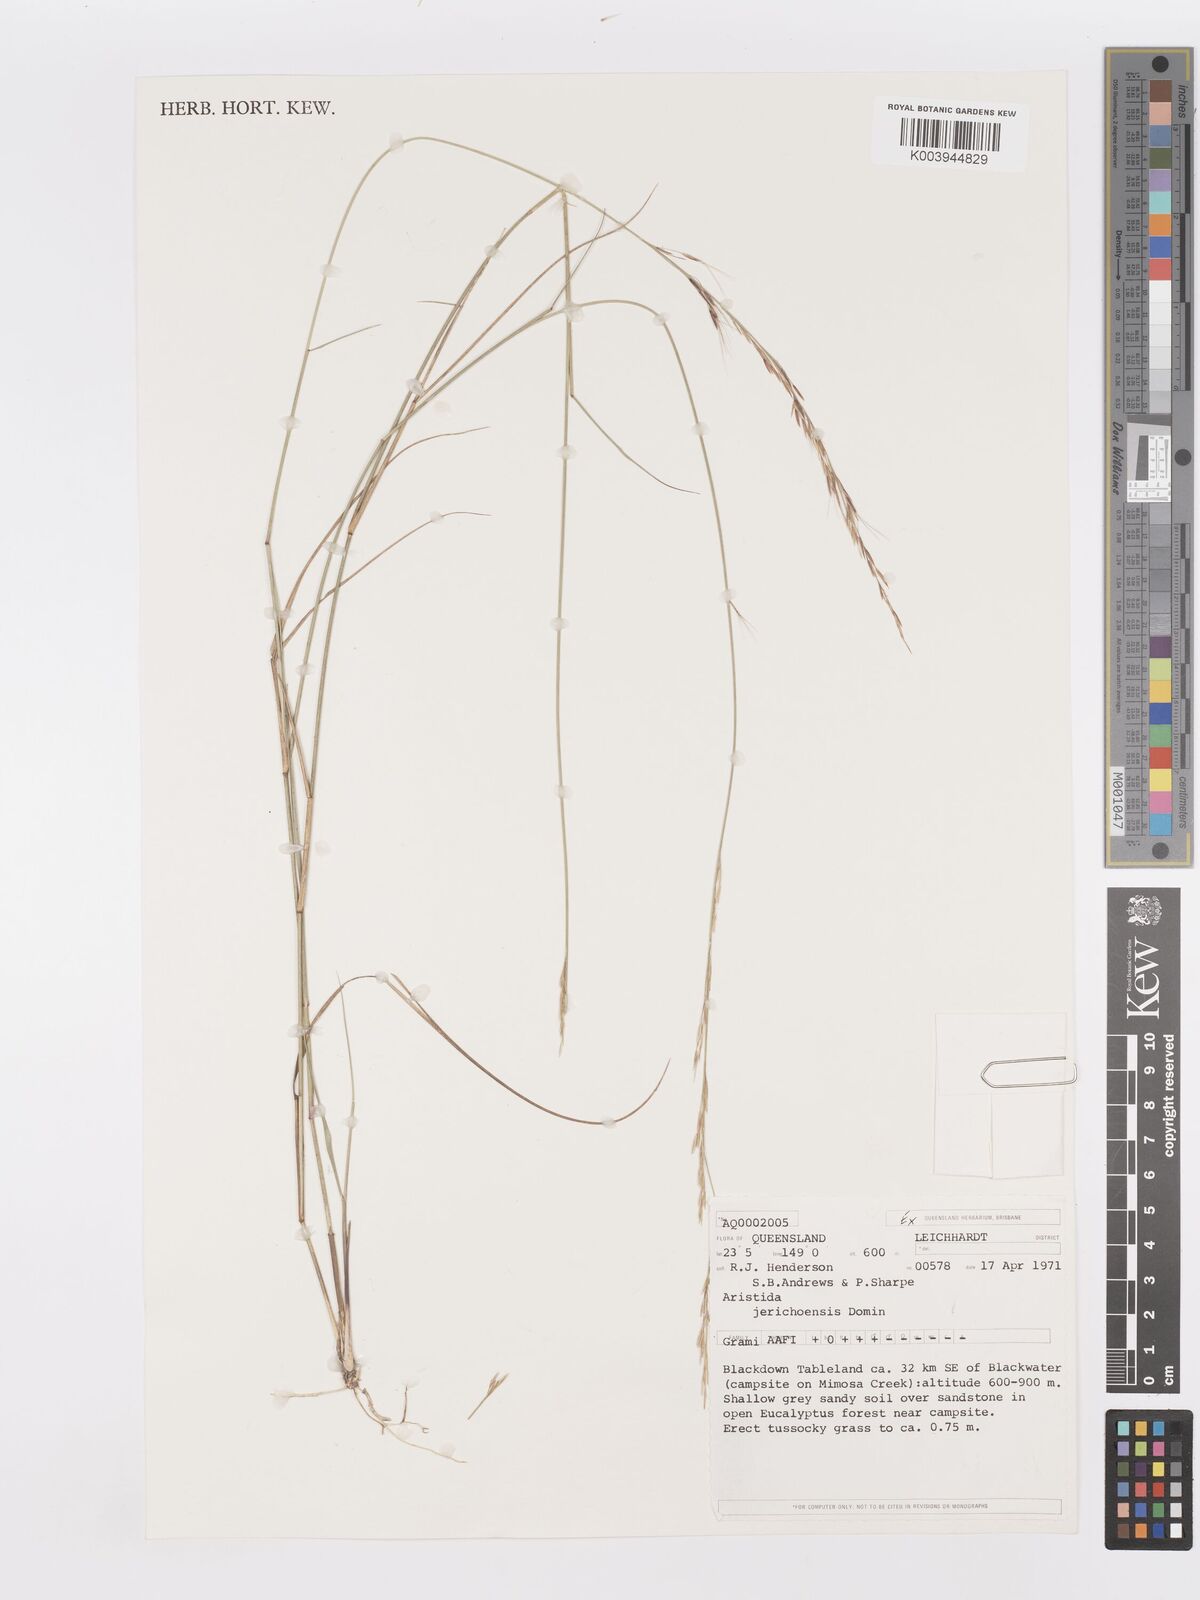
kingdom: Plantae
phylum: Tracheophyta
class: Liliopsida
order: Poales
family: Poaceae
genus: Aristida
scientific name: Aristida jerichoensis
